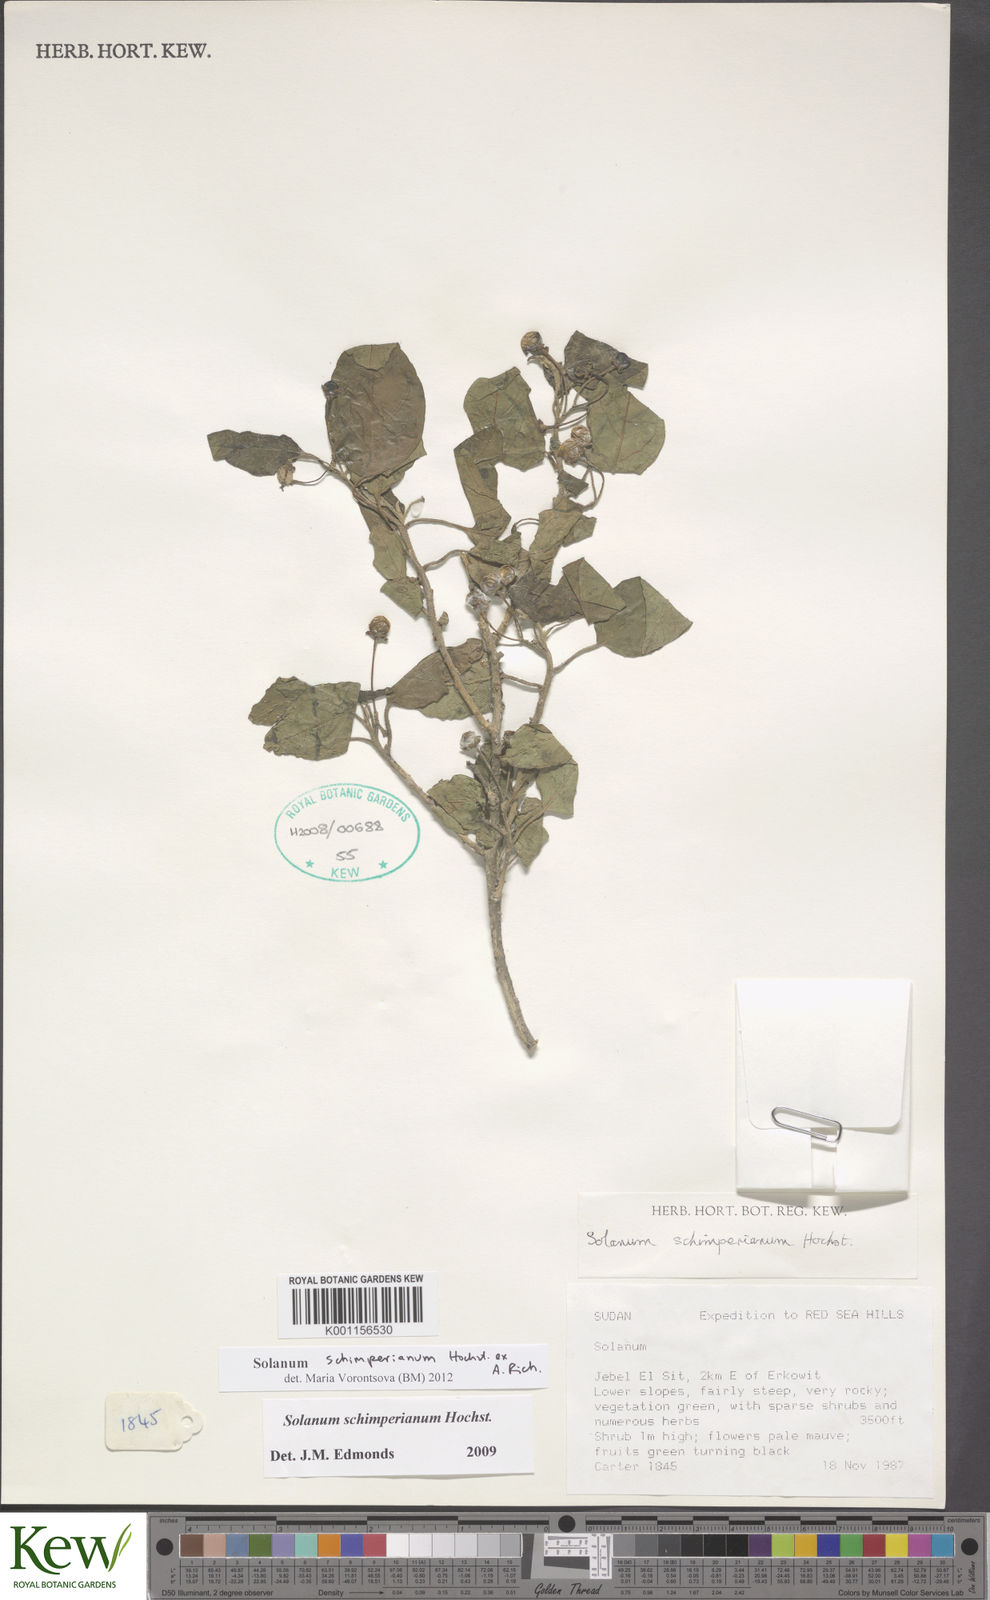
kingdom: Plantae
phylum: Tracheophyta
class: Magnoliopsida
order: Solanales
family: Solanaceae
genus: Solanum
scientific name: Solanum
